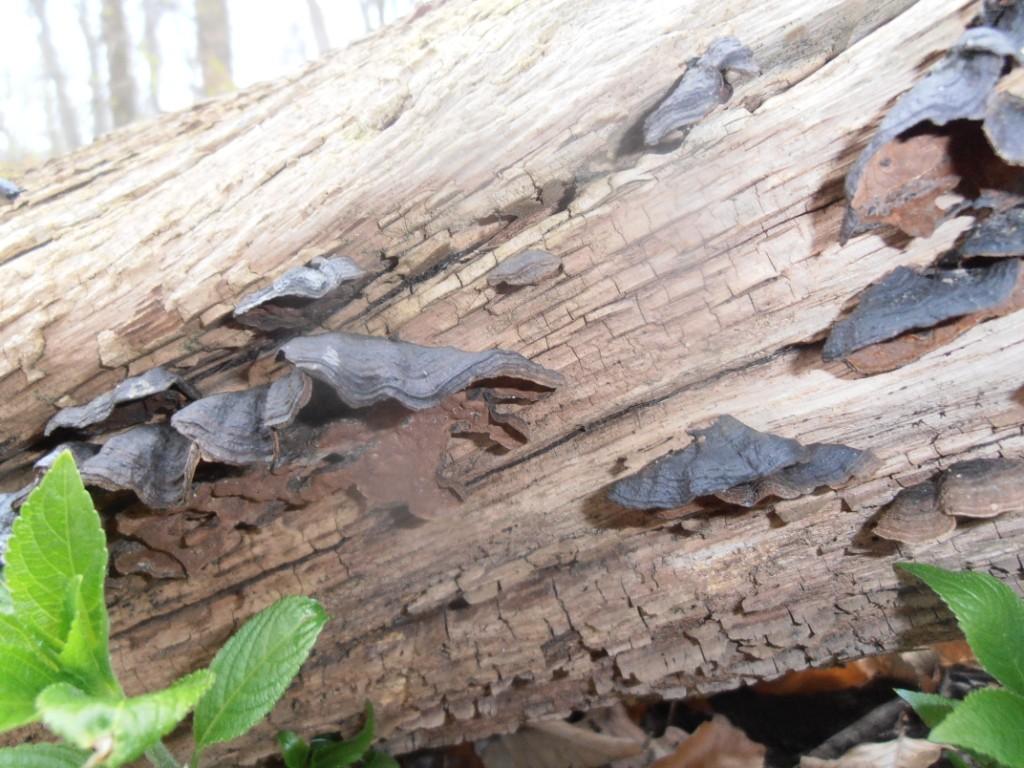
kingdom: Fungi
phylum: Basidiomycota
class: Agaricomycetes
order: Hymenochaetales
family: Hymenochaetaceae
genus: Hymenochaete
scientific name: Hymenochaete rubiginosa
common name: stiv ruslædersvamp
